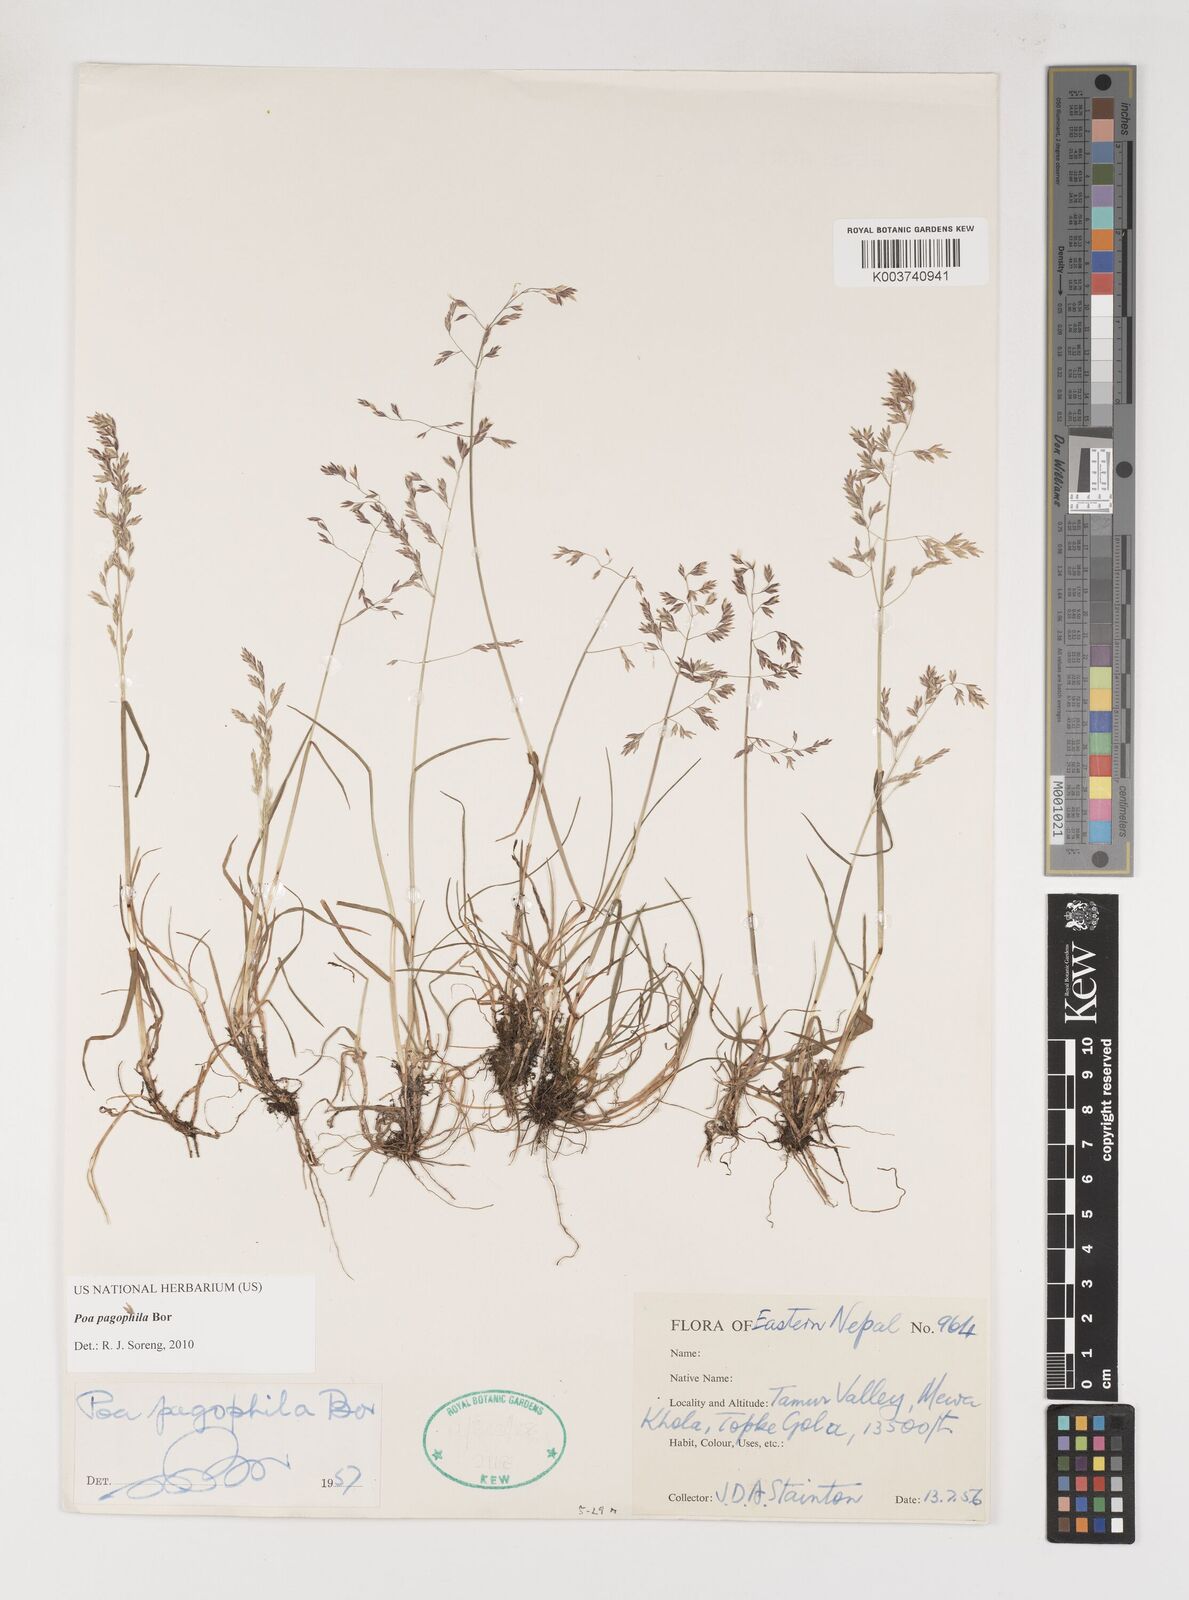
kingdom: Plantae
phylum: Tracheophyta
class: Liliopsida
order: Poales
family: Poaceae
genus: Poa
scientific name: Poa pagophila
